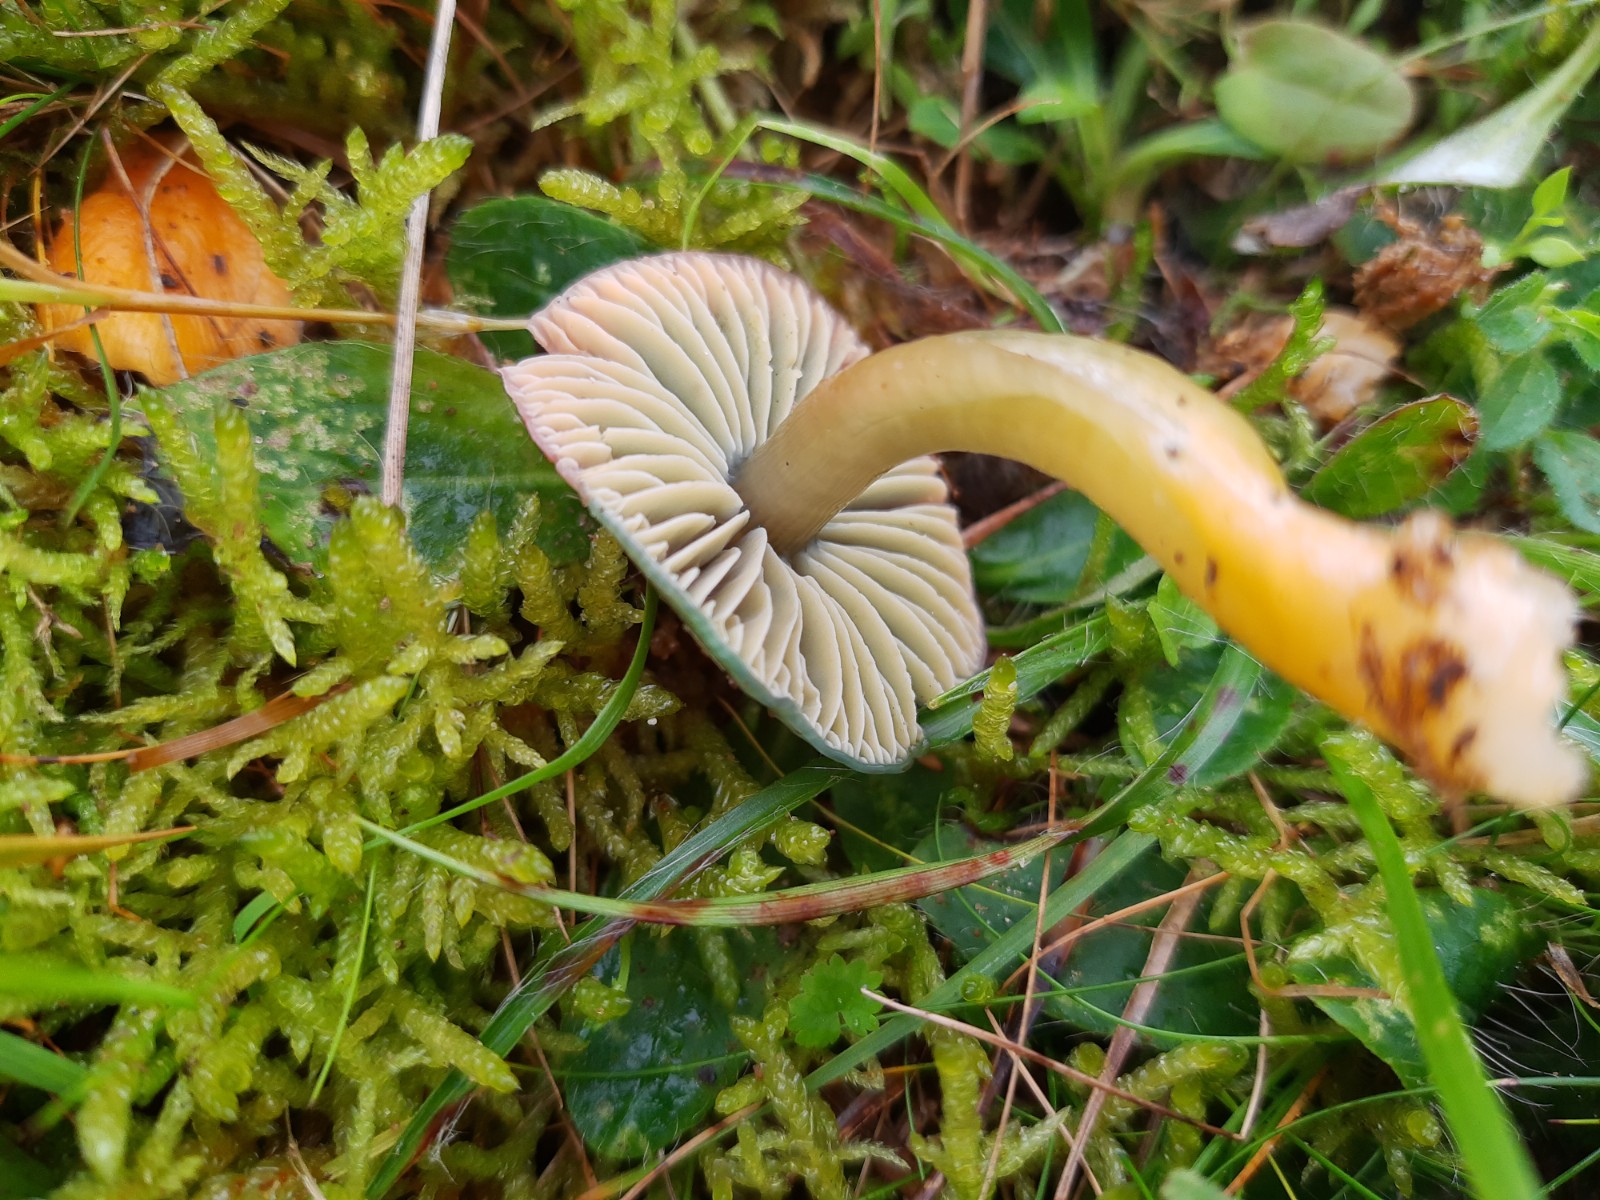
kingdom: Fungi
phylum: Basidiomycota
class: Agaricomycetes
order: Agaricales
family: Hygrophoraceae
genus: Gliophorus
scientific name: Gliophorus psittacinus
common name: papegøje-vokshat
